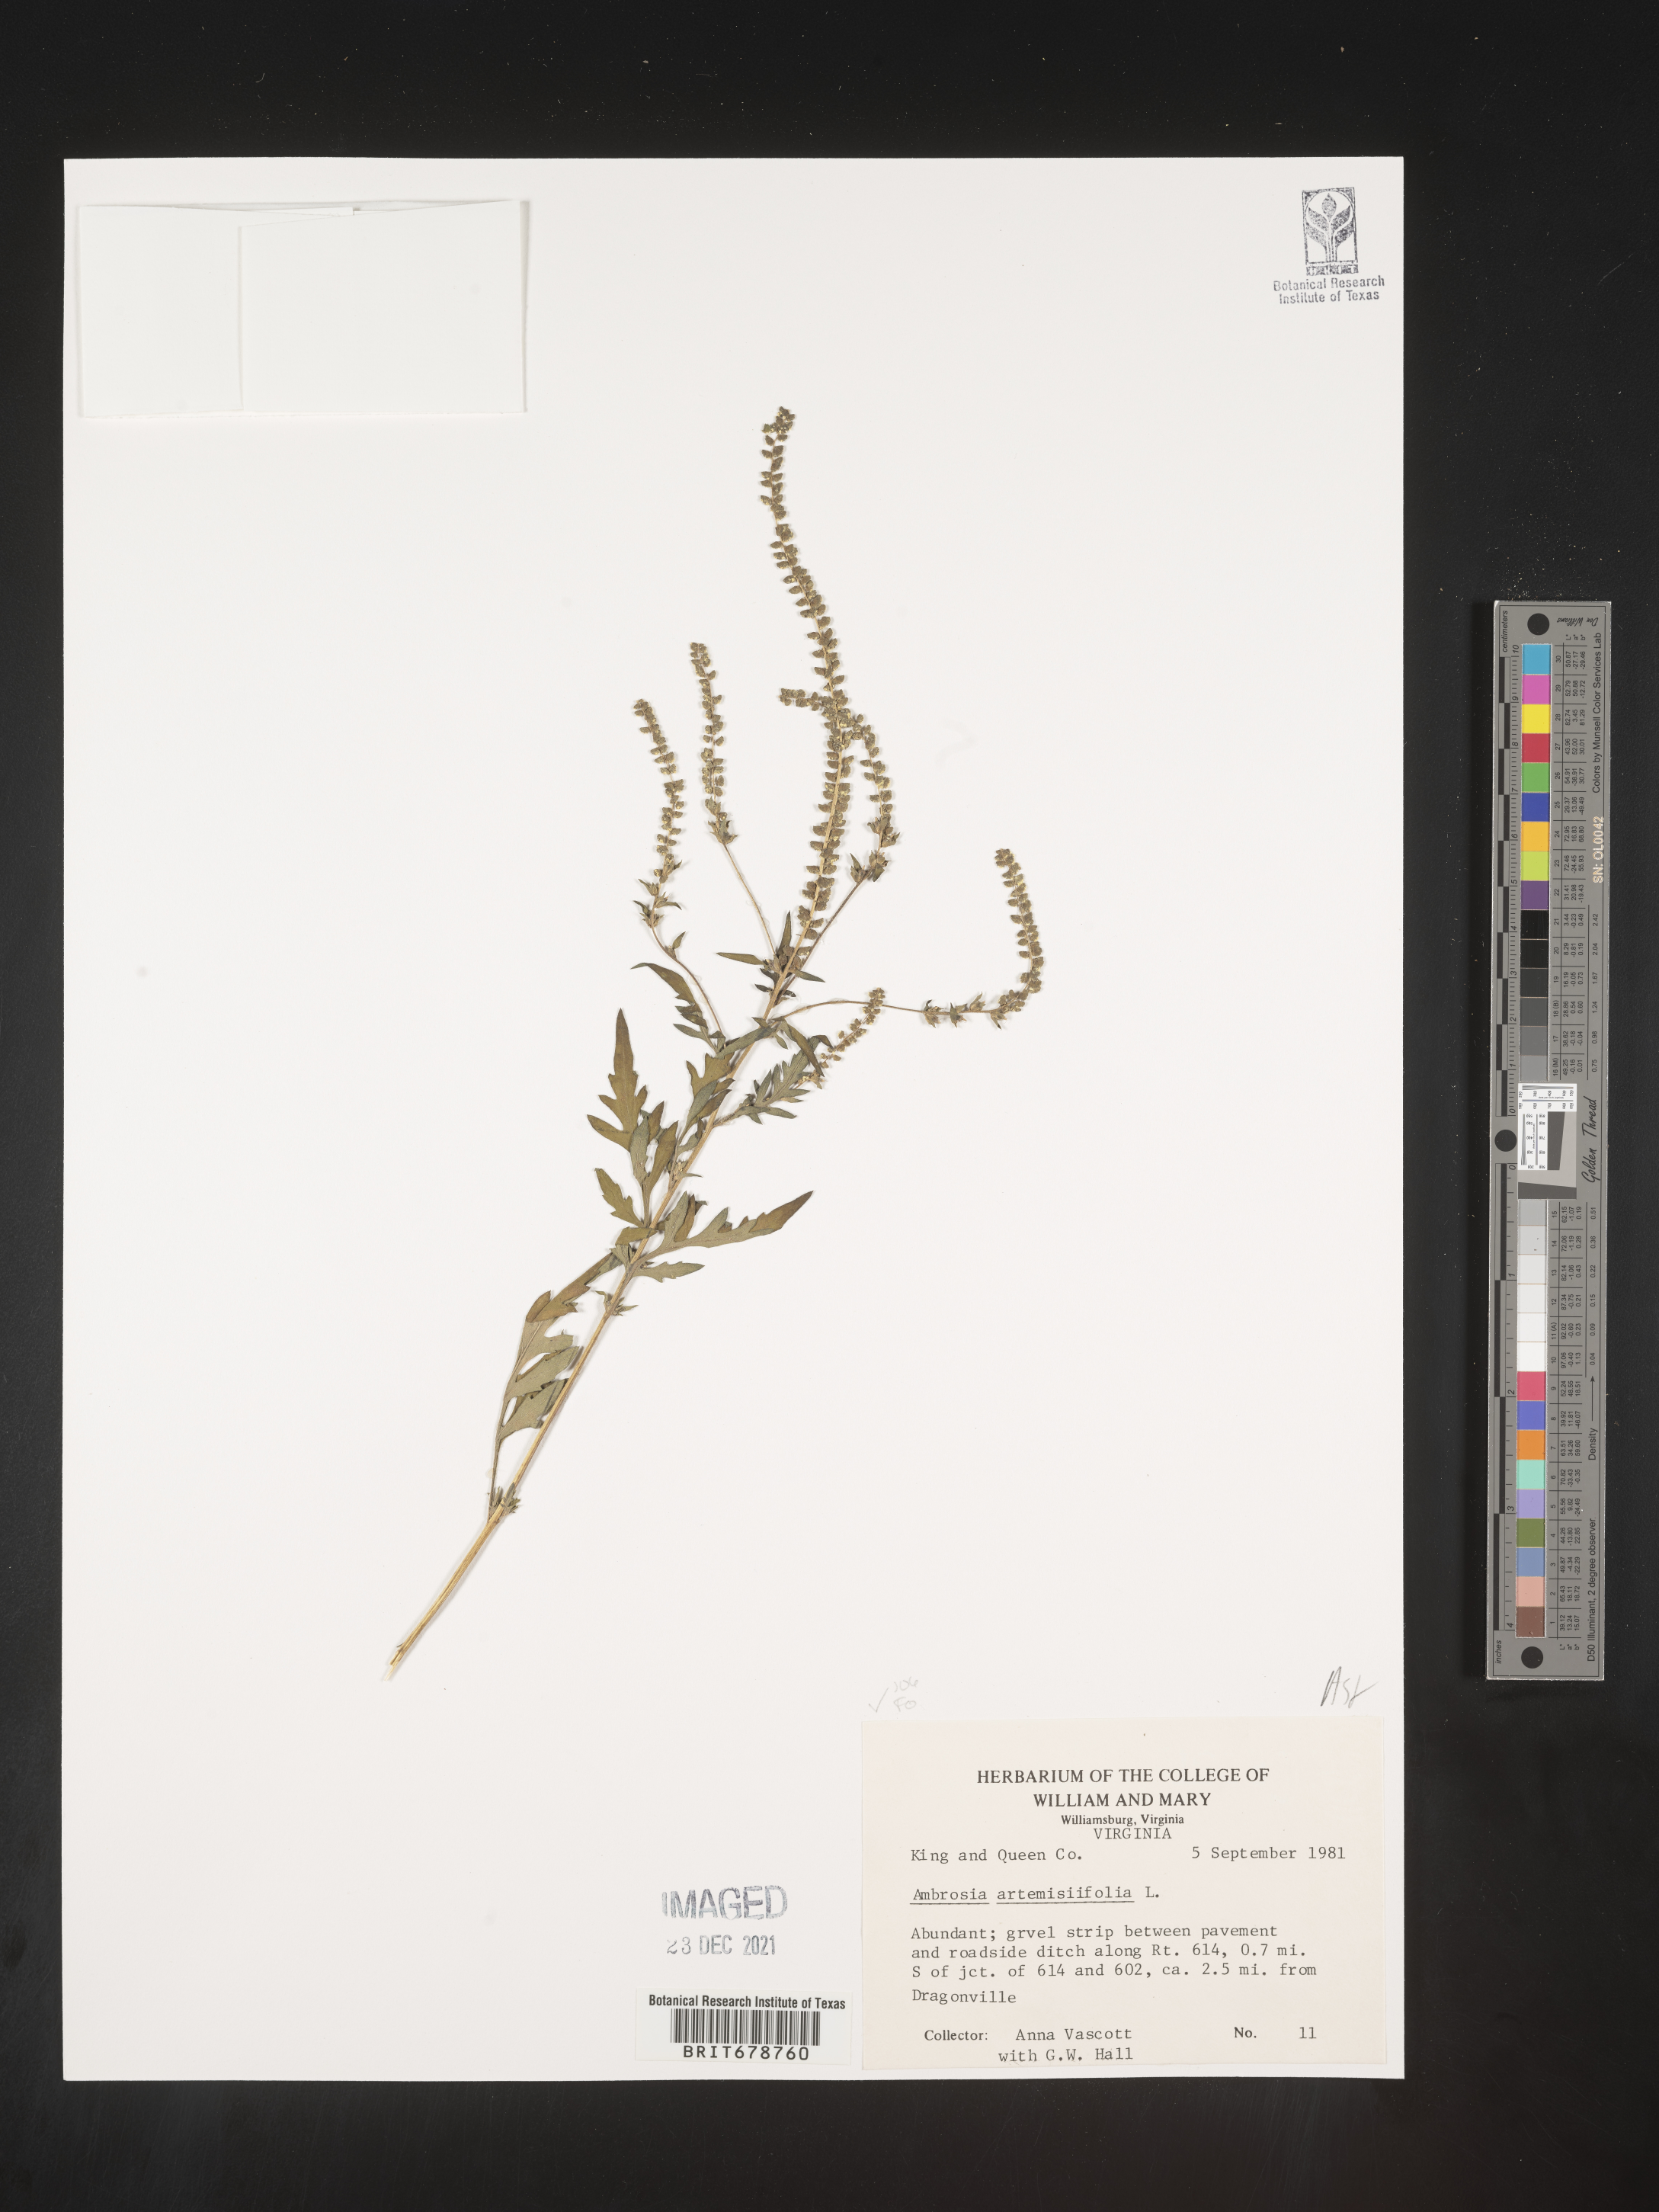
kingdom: Plantae
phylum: Tracheophyta
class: Magnoliopsida
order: Asterales
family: Asteraceae
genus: Ambrosia
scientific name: Ambrosia artemisiifolia
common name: Annual ragweed
